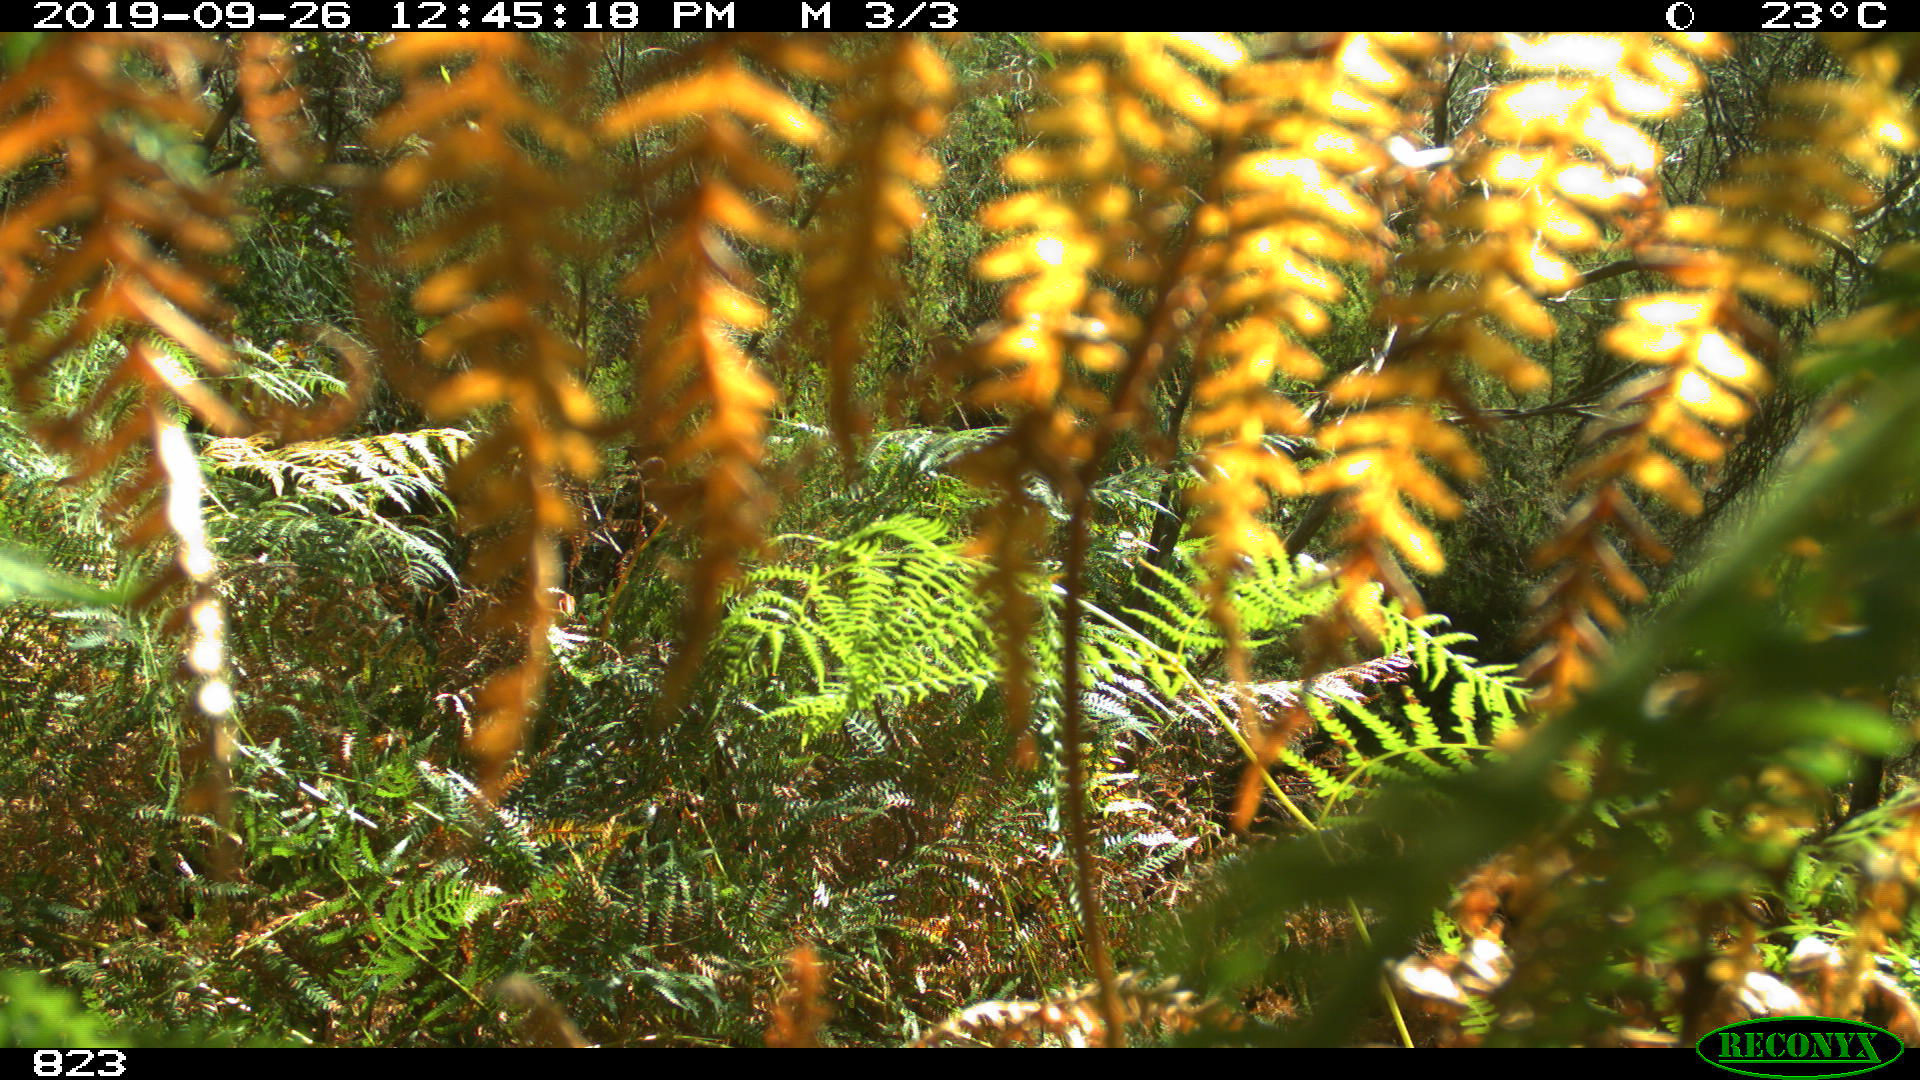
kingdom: Animalia
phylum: Chordata
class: Mammalia
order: Perissodactyla
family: Equidae
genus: Equus
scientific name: Equus caballus
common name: Horse
